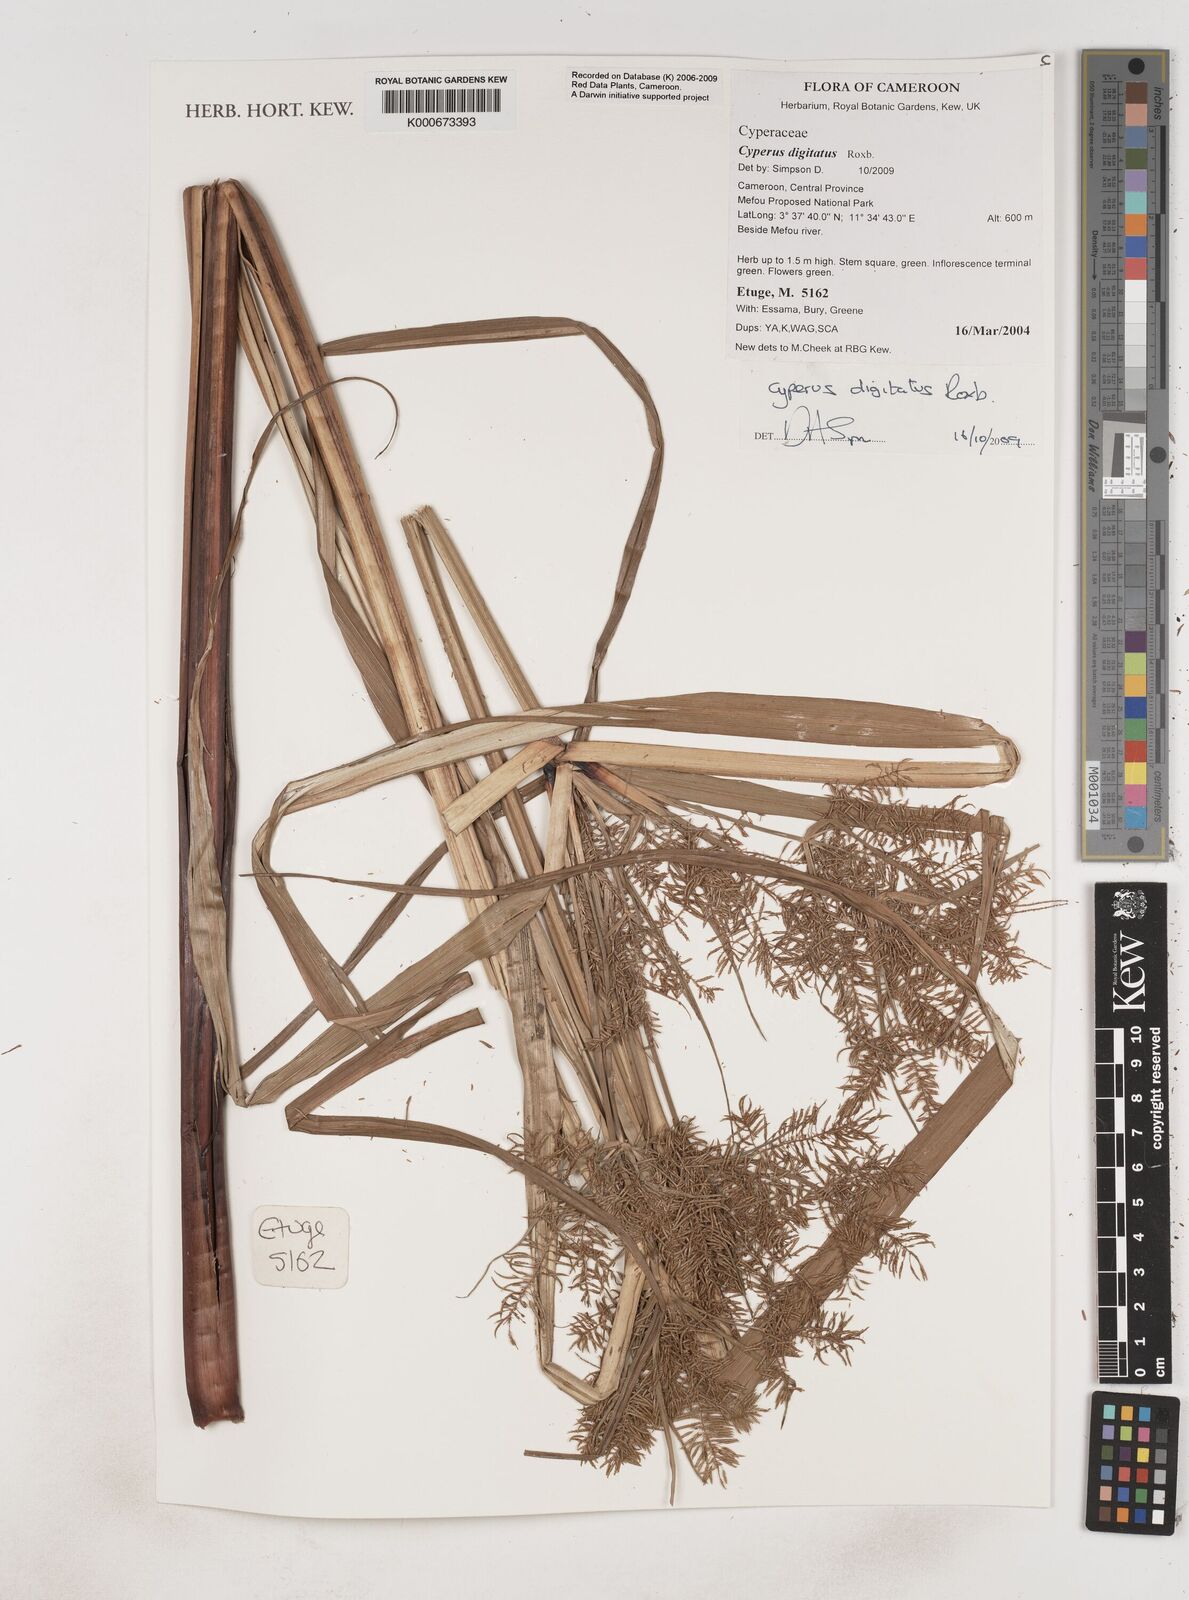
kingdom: Plantae
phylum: Tracheophyta
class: Liliopsida
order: Poales
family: Cyperaceae
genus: Cyperus
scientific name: Cyperus digitatus
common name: Finger flatsedge
